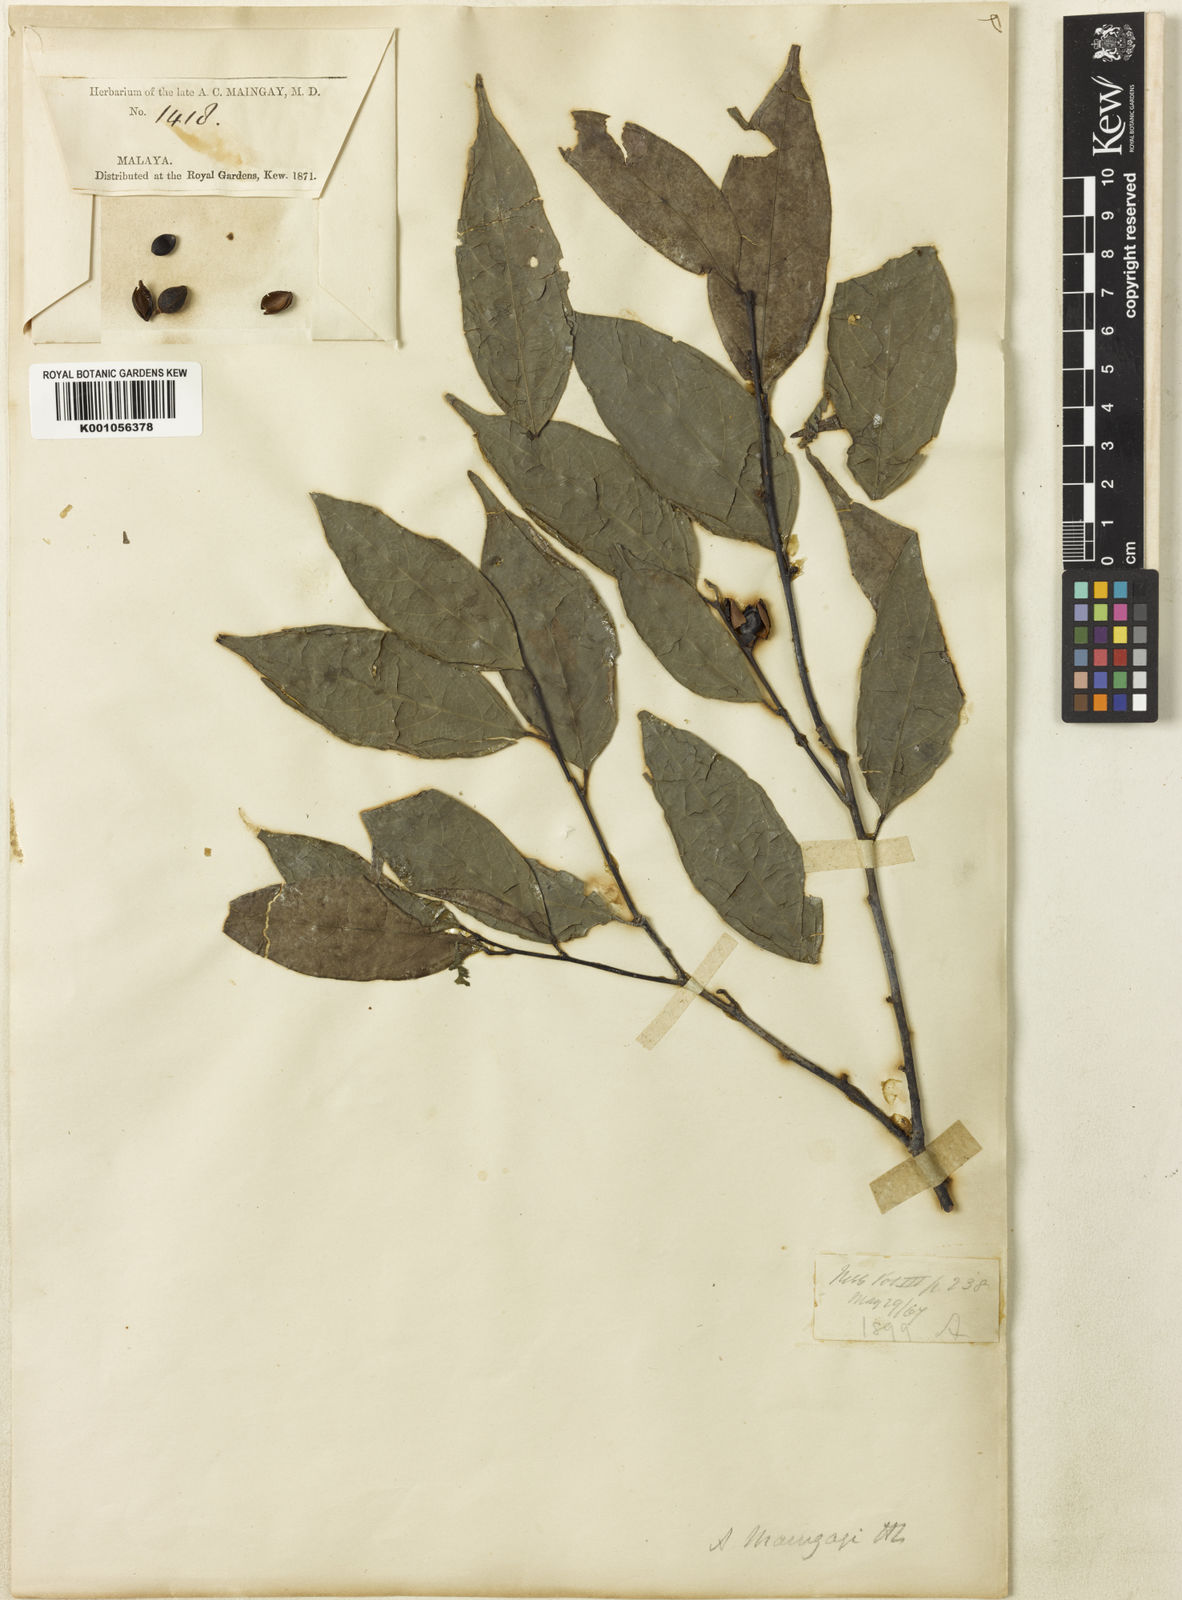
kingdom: Plantae
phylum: Tracheophyta
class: Magnoliopsida
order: Malpighiales
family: Phyllanthaceae
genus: Aporosa
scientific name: Aporosa maingayi
